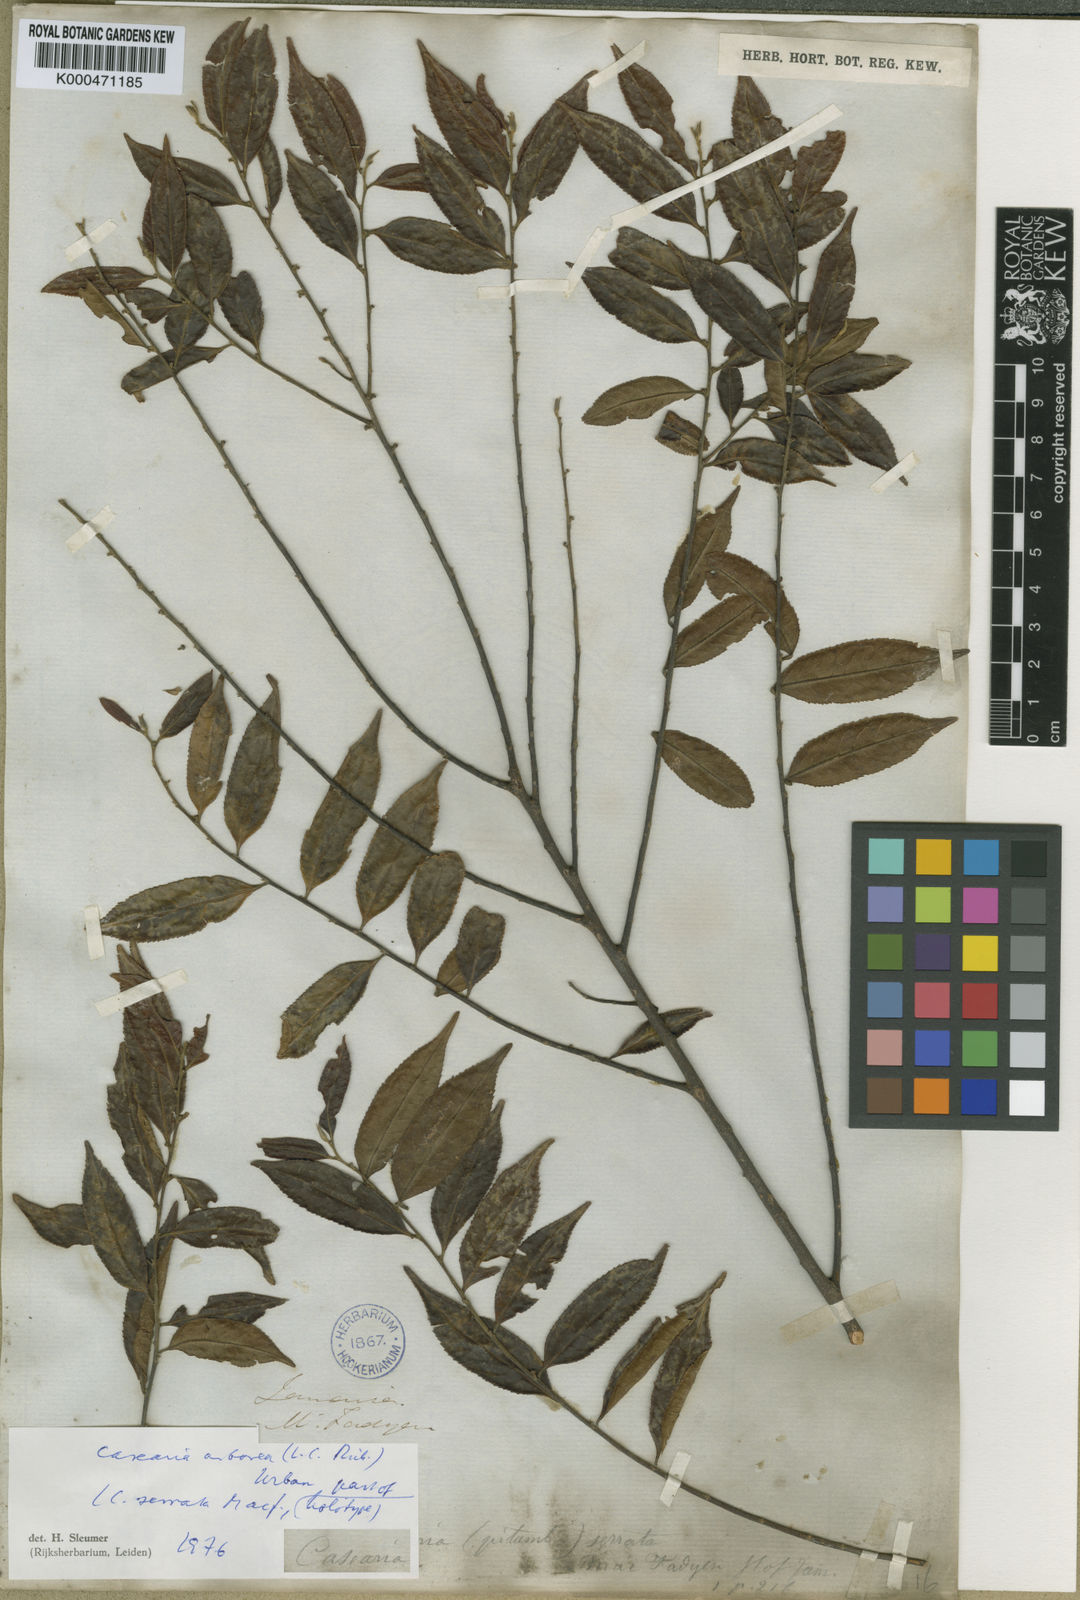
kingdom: Plantae
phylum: Tracheophyta
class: Magnoliopsida
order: Malpighiales
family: Salicaceae
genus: Casearia
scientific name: Casearia arborea
